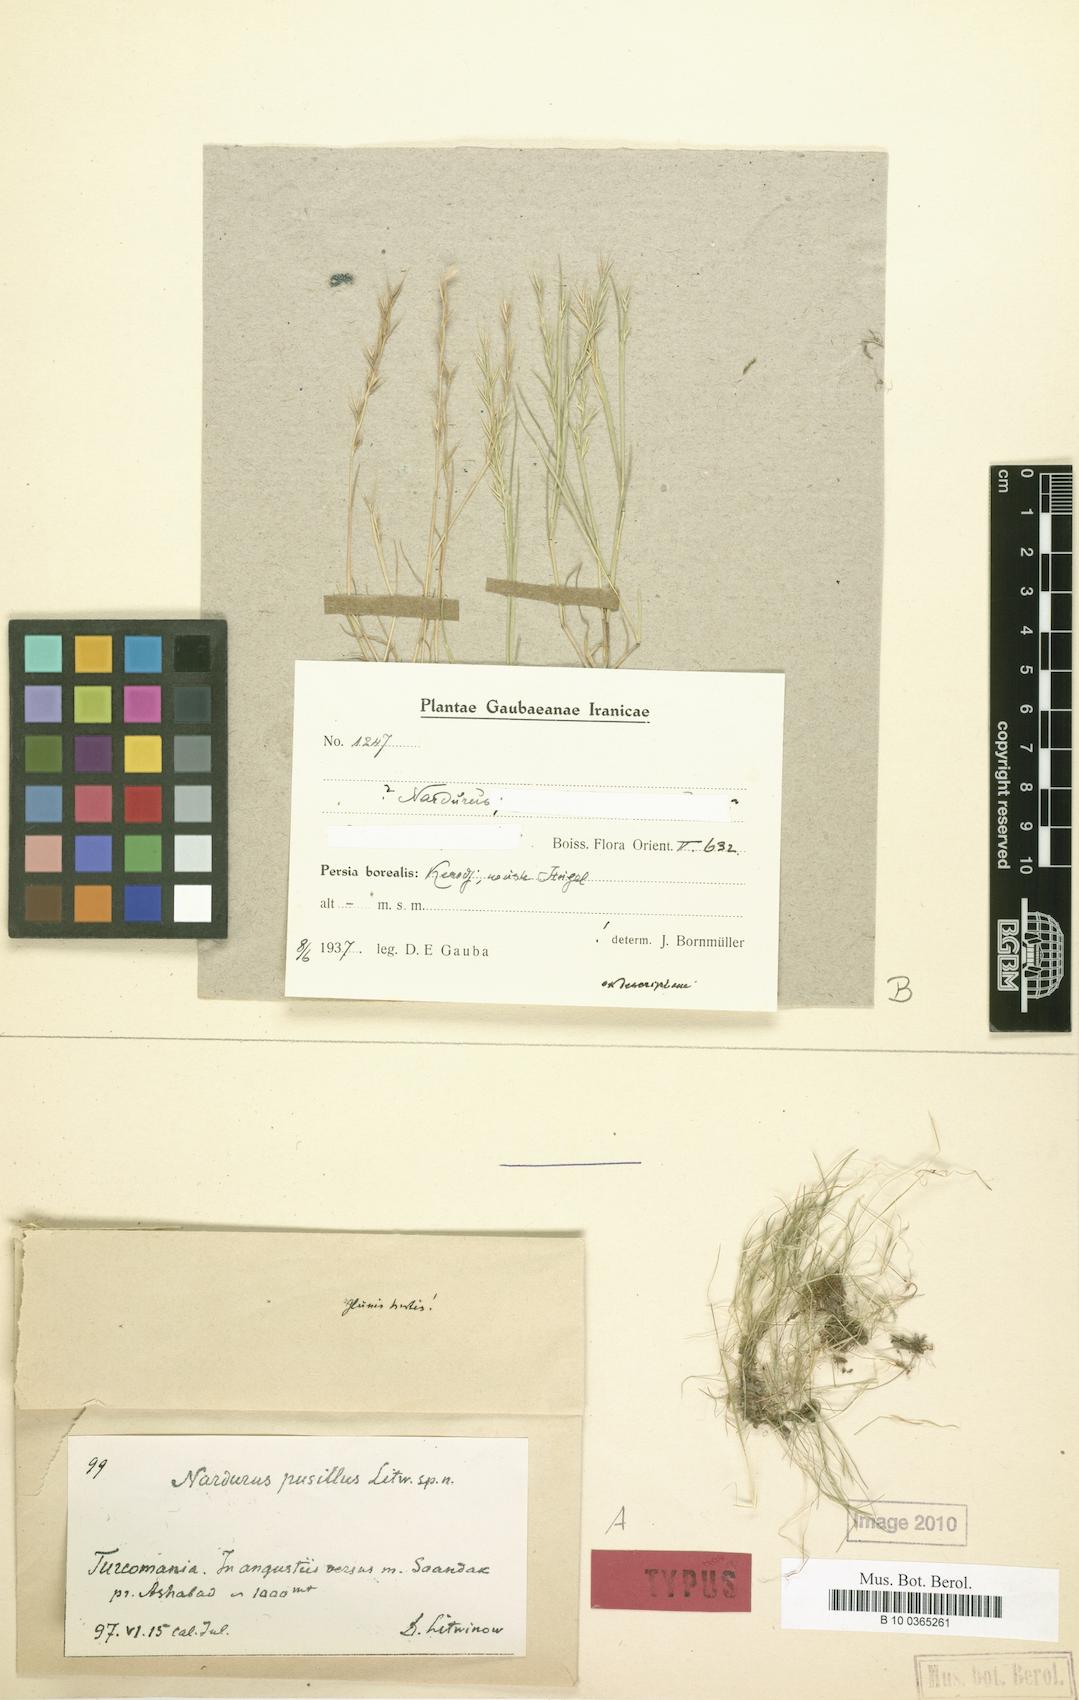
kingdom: Plantae
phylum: Tracheophyta
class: Liliopsida
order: Poales
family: Poaceae
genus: Festuca
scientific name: Festuca
